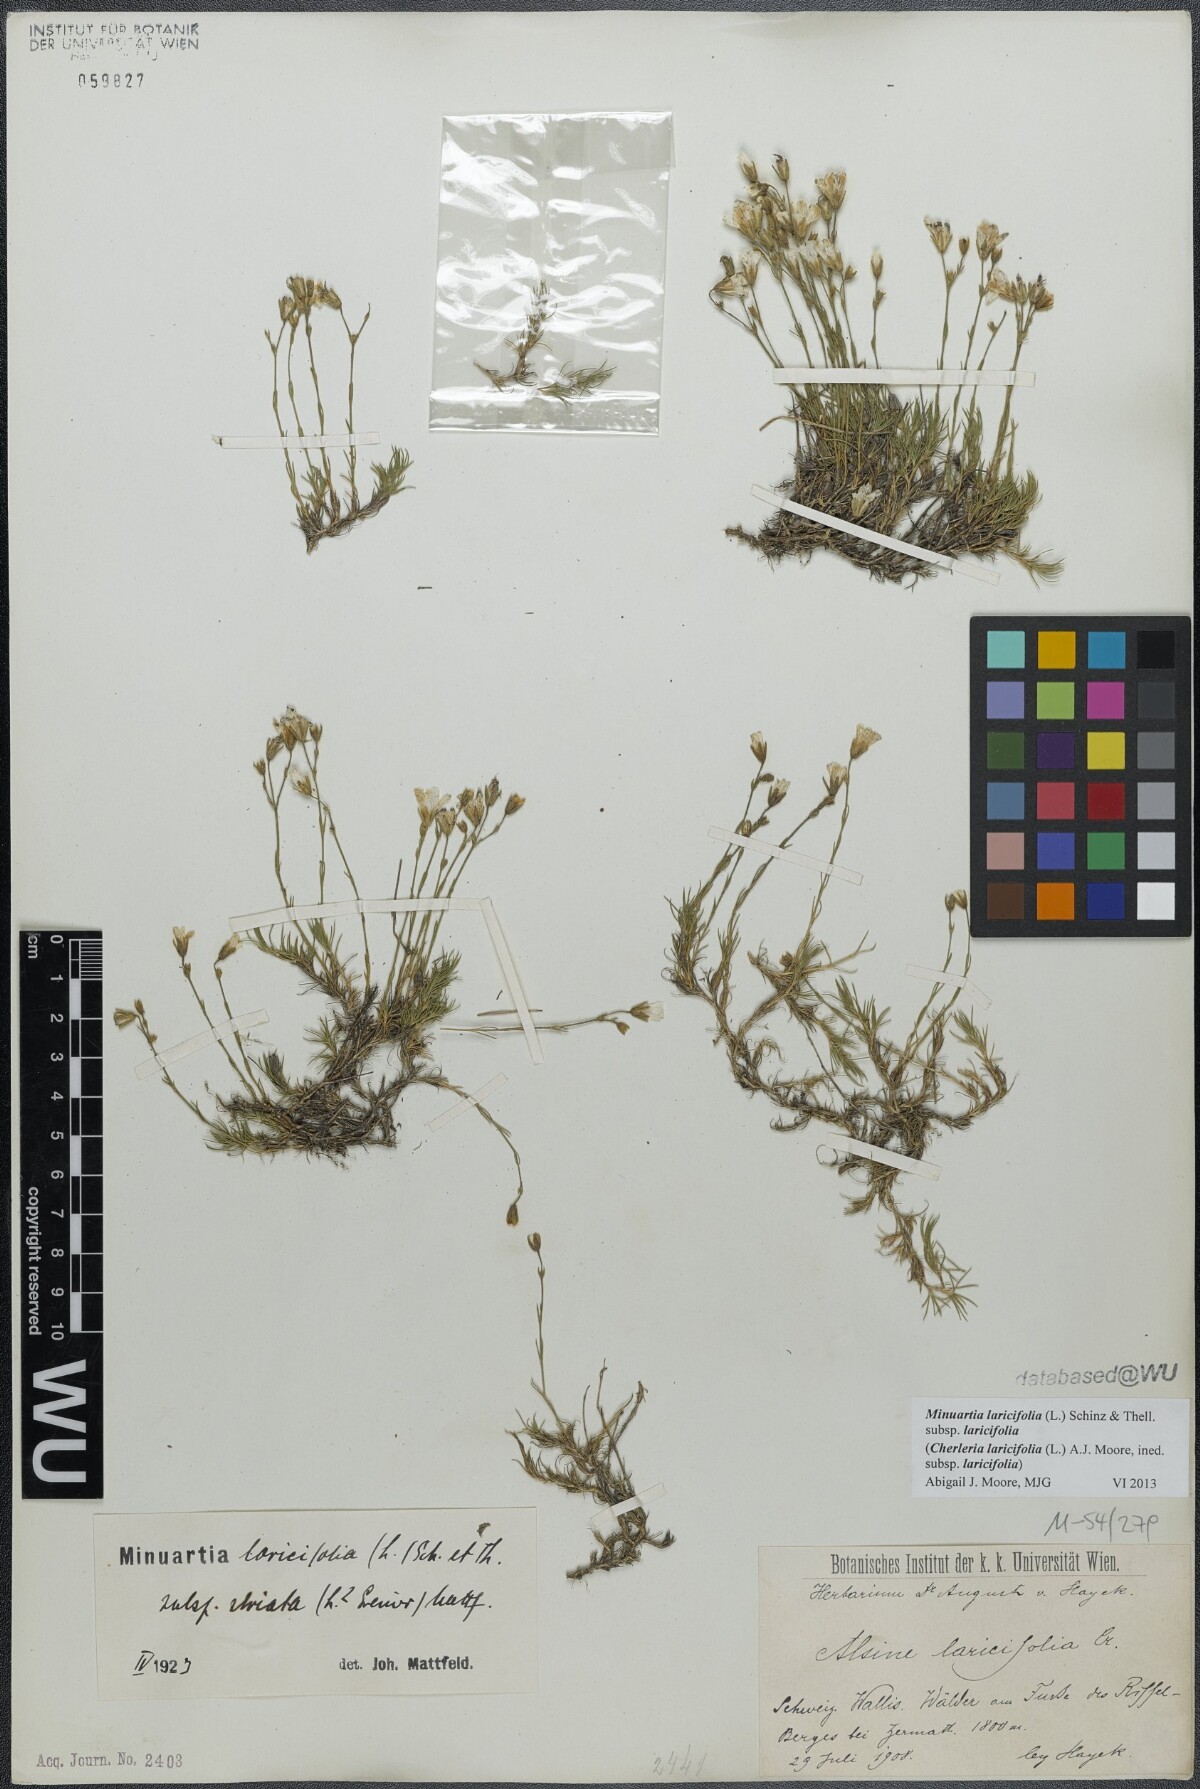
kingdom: Plantae
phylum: Tracheophyta
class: Magnoliopsida
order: Caryophyllales
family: Caryophyllaceae
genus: Cherleria
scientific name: Cherleria laricifolia
